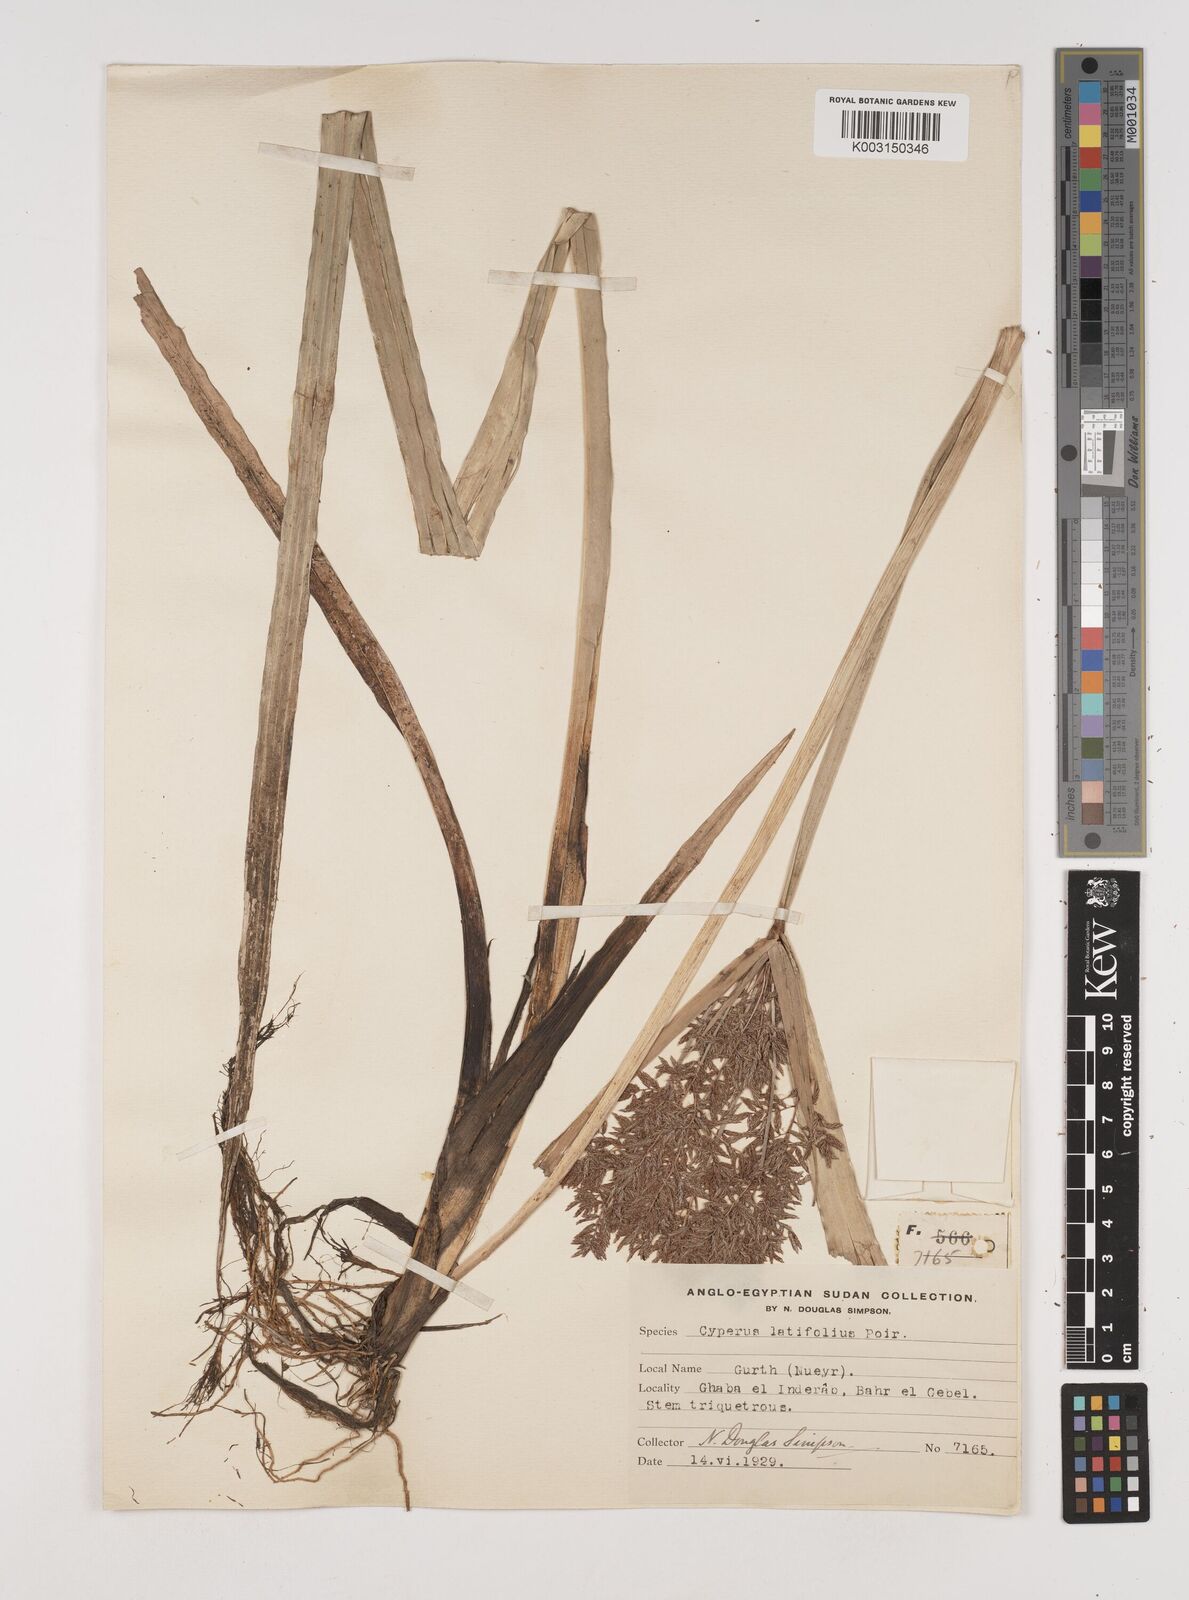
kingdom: Plantae
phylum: Tracheophyta
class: Liliopsida
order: Poales
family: Cyperaceae
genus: Cyperus
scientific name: Cyperus latifolius
